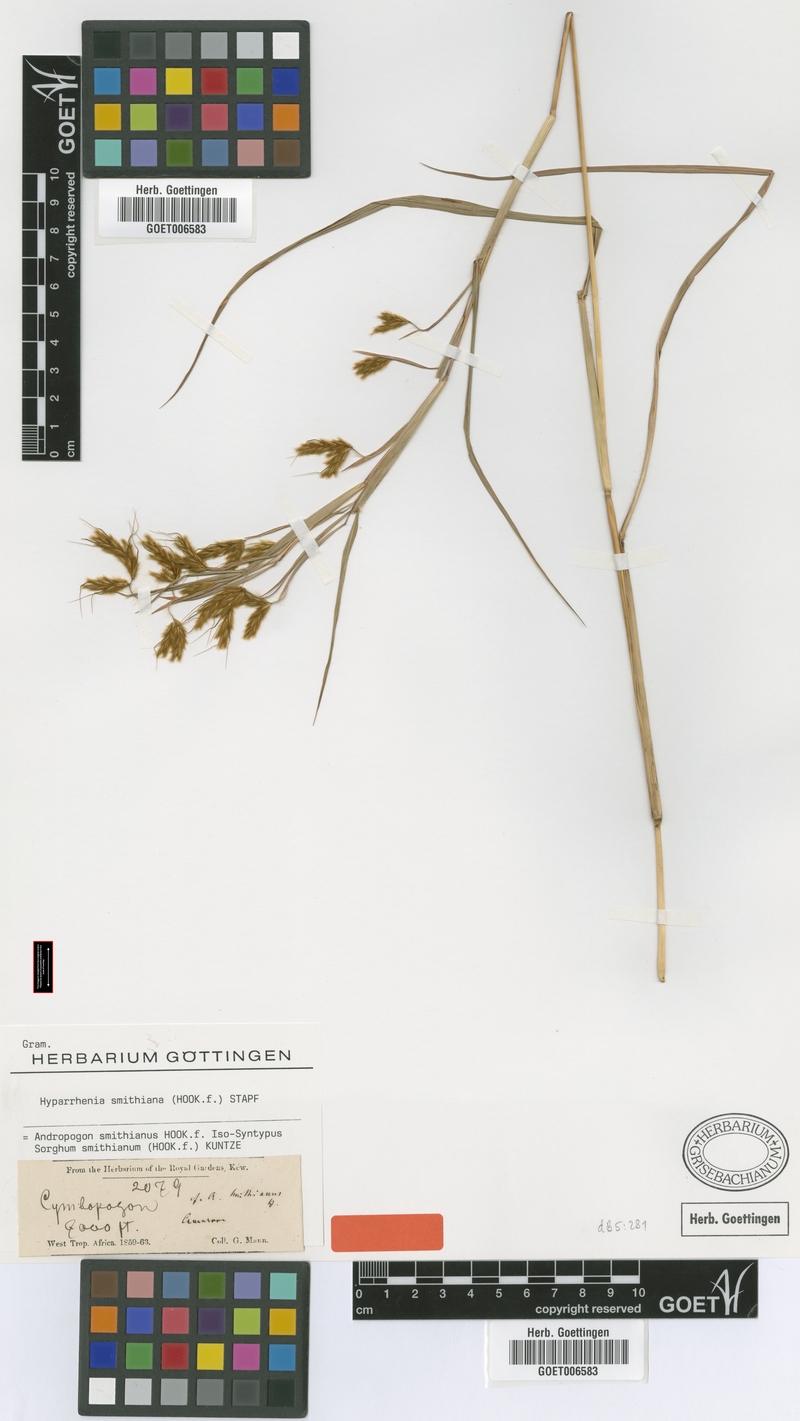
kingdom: Plantae
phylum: Tracheophyta
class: Liliopsida
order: Poales
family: Poaceae
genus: Hyparrhenia
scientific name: Hyparrhenia smithiana
